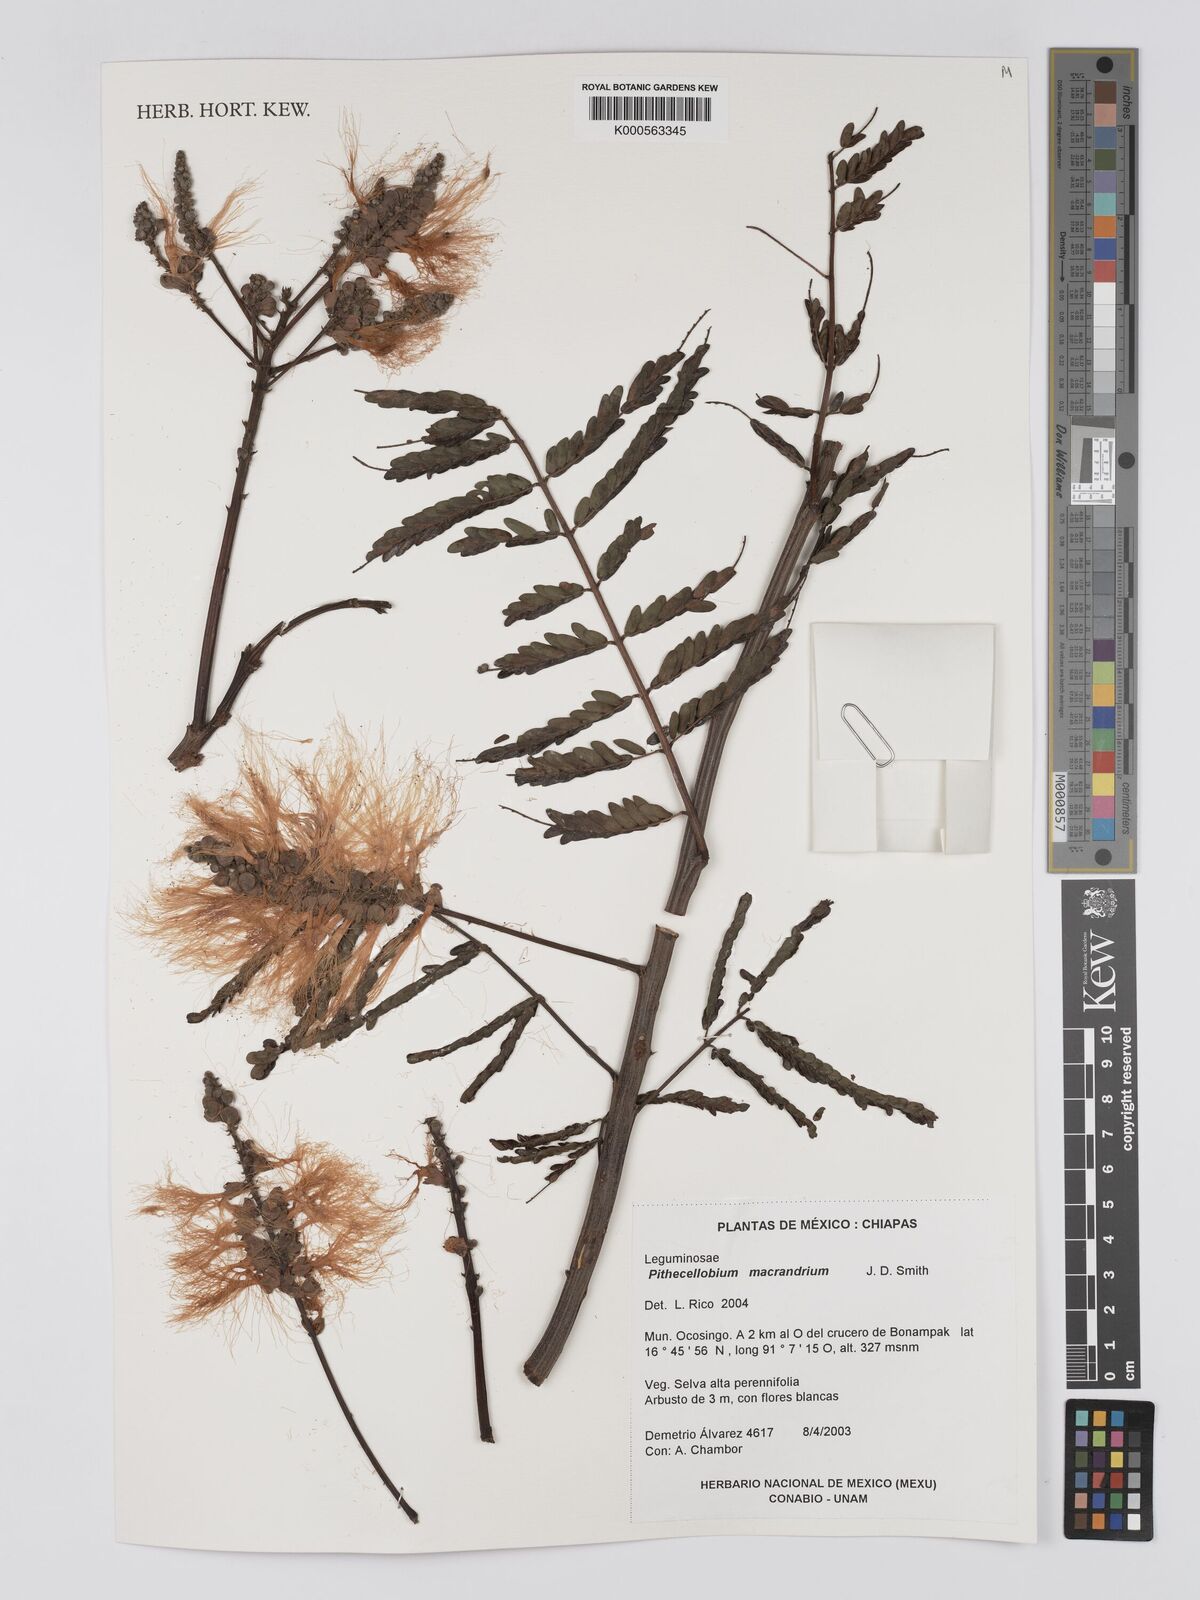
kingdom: Plantae
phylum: Tracheophyta
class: Magnoliopsida
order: Fabales
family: Fabaceae
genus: Pithecellobium
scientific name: Pithecellobium macrandrium
